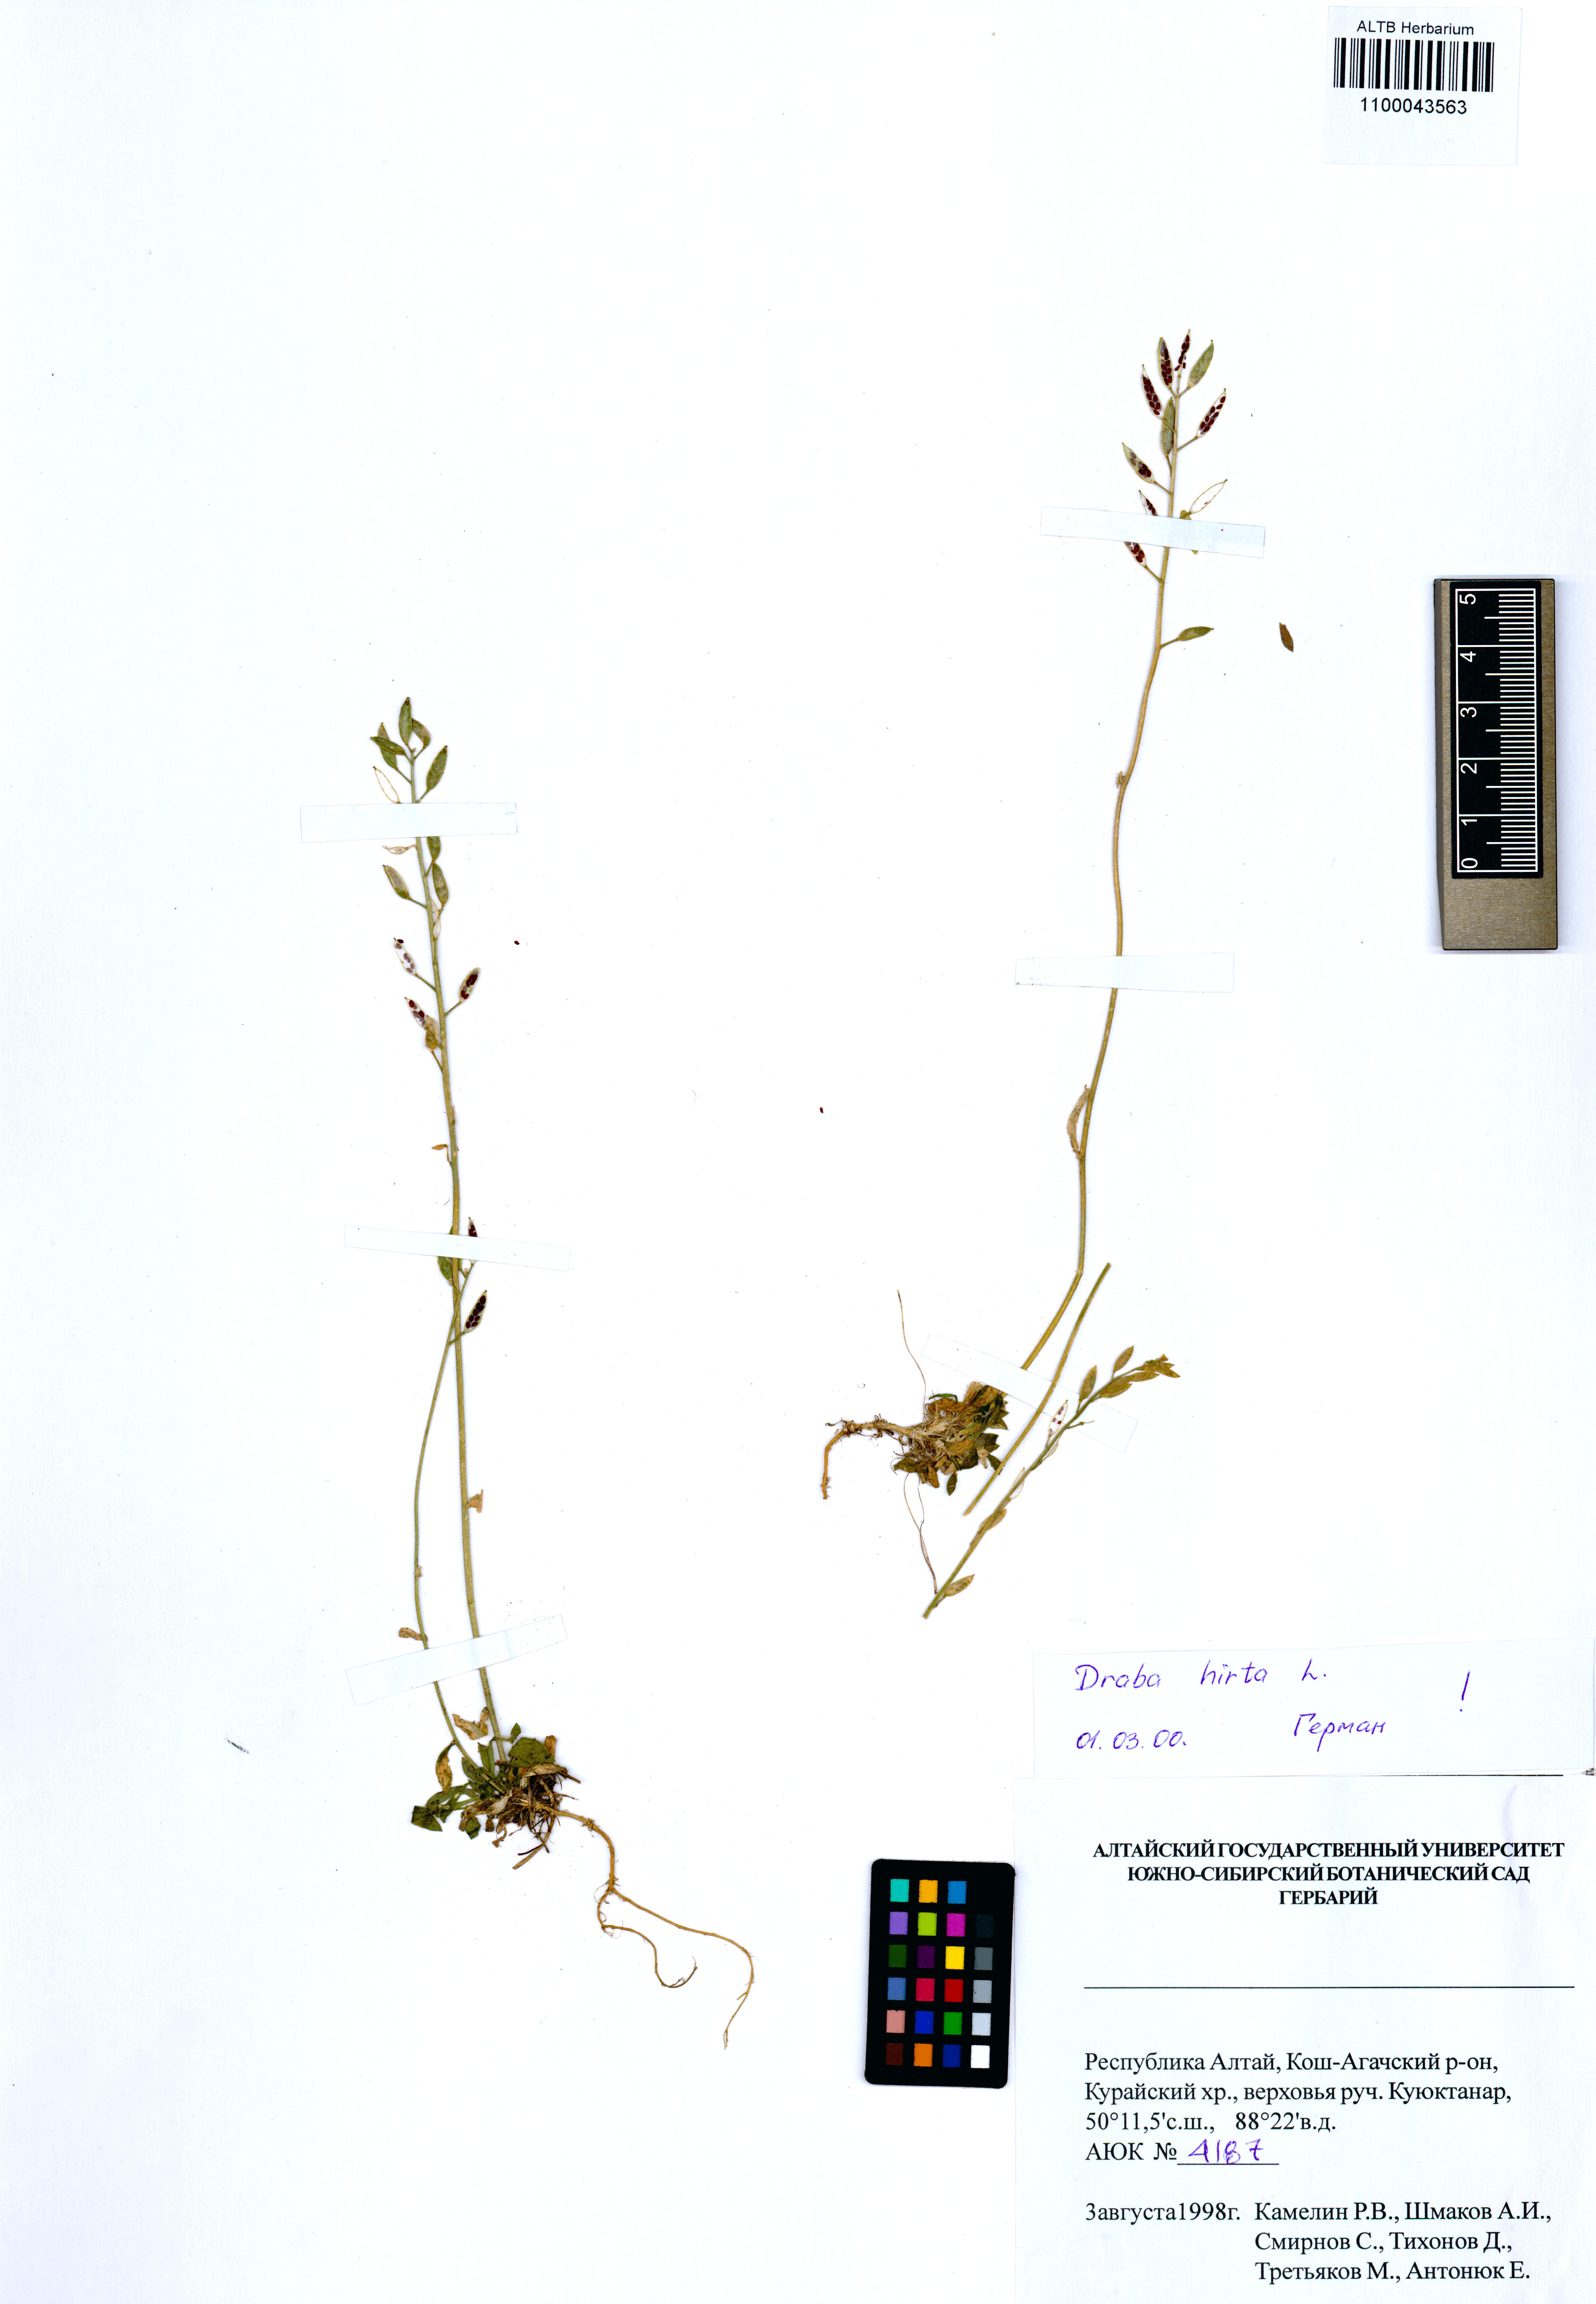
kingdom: Plantae
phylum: Tracheophyta
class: Magnoliopsida
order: Brassicales
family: Brassicaceae
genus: Draba
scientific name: Draba glabella
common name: Glaucous draba
